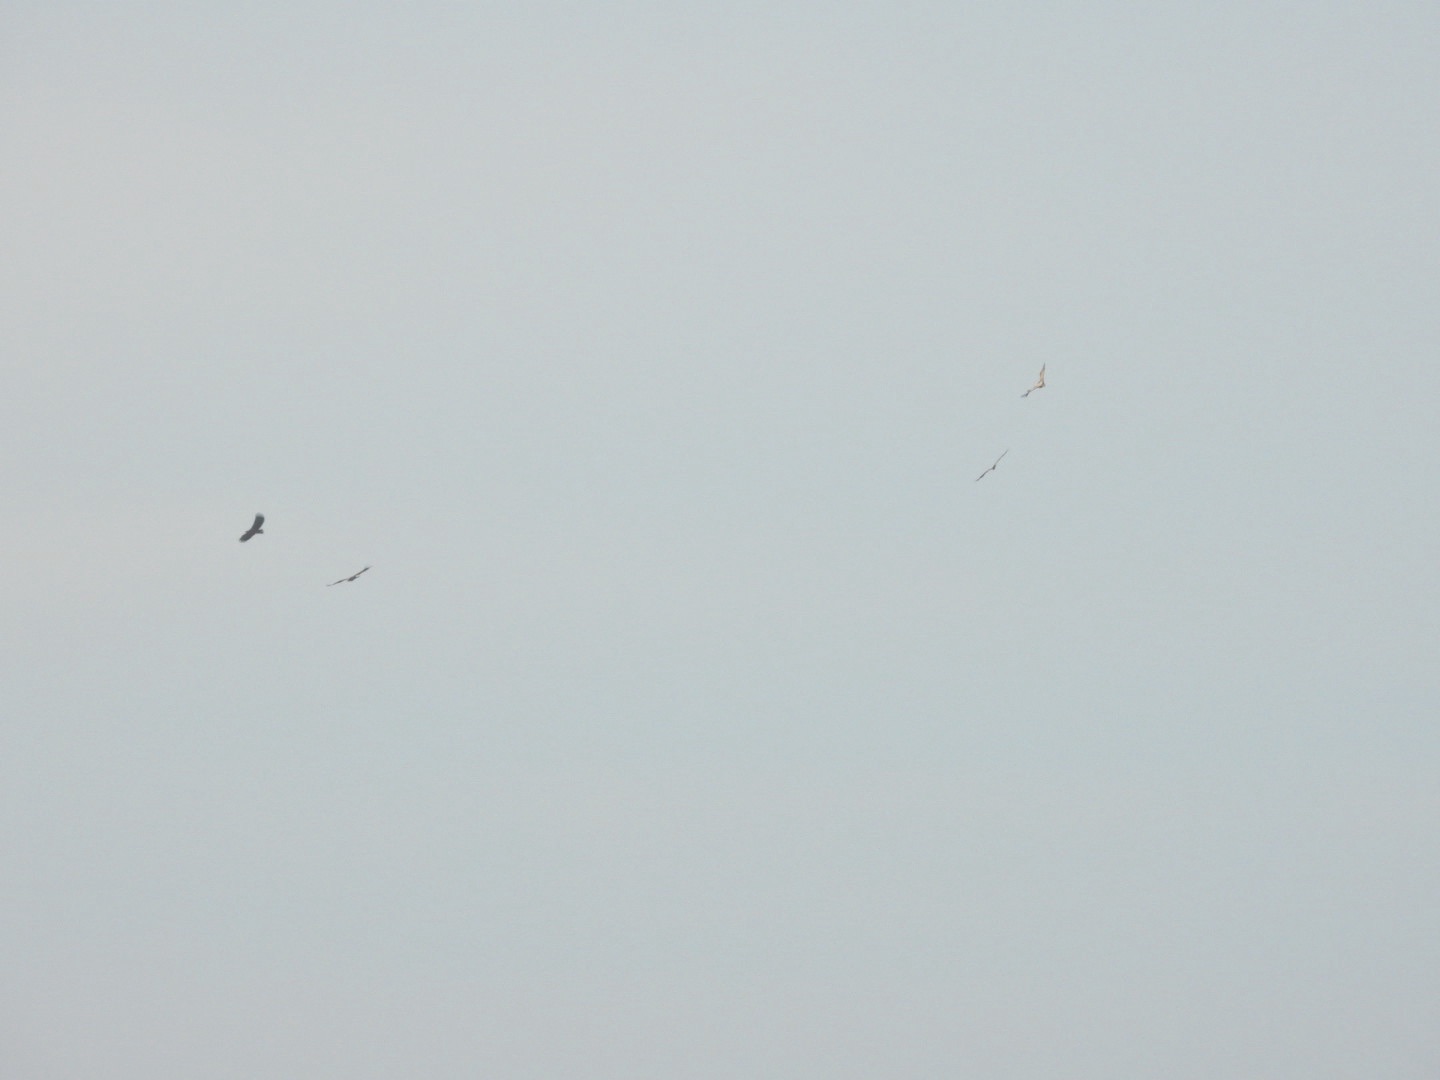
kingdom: Animalia
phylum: Chordata
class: Aves
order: Accipitriformes
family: Accipitridae
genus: Haliaeetus
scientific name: Haliaeetus albicilla
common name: Havørn
